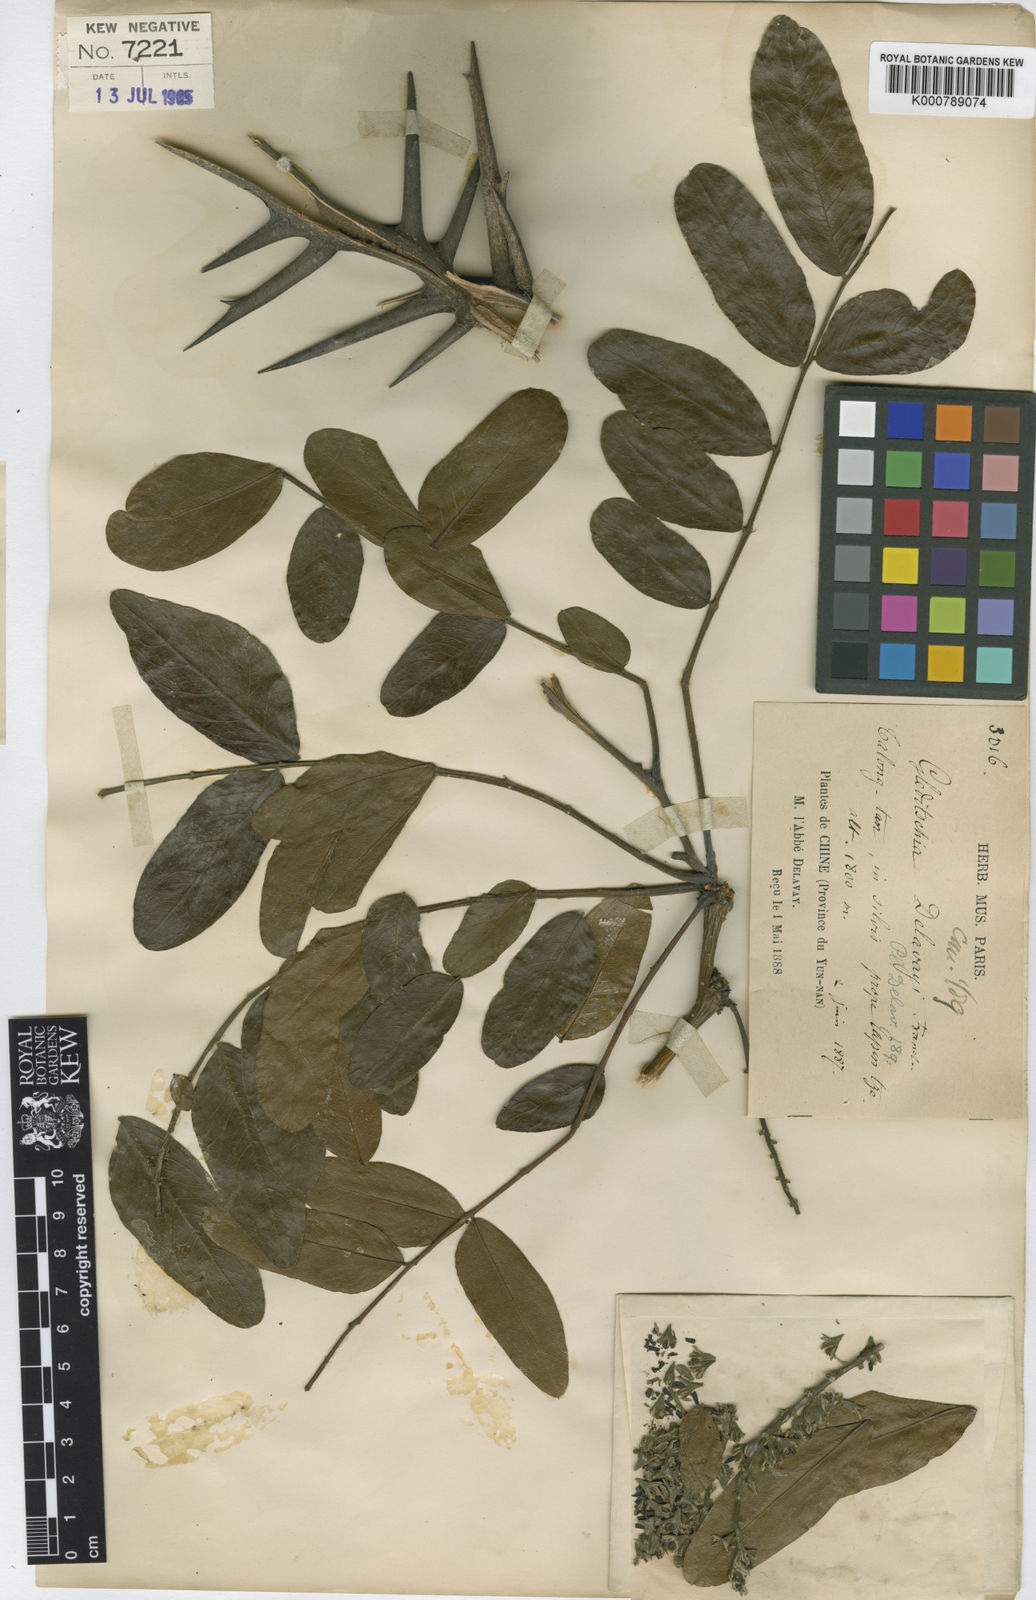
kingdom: Plantae
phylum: Tracheophyta
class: Magnoliopsida
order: Fabales
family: Fabaceae
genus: Gleditsia
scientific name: Gleditsia japonica
